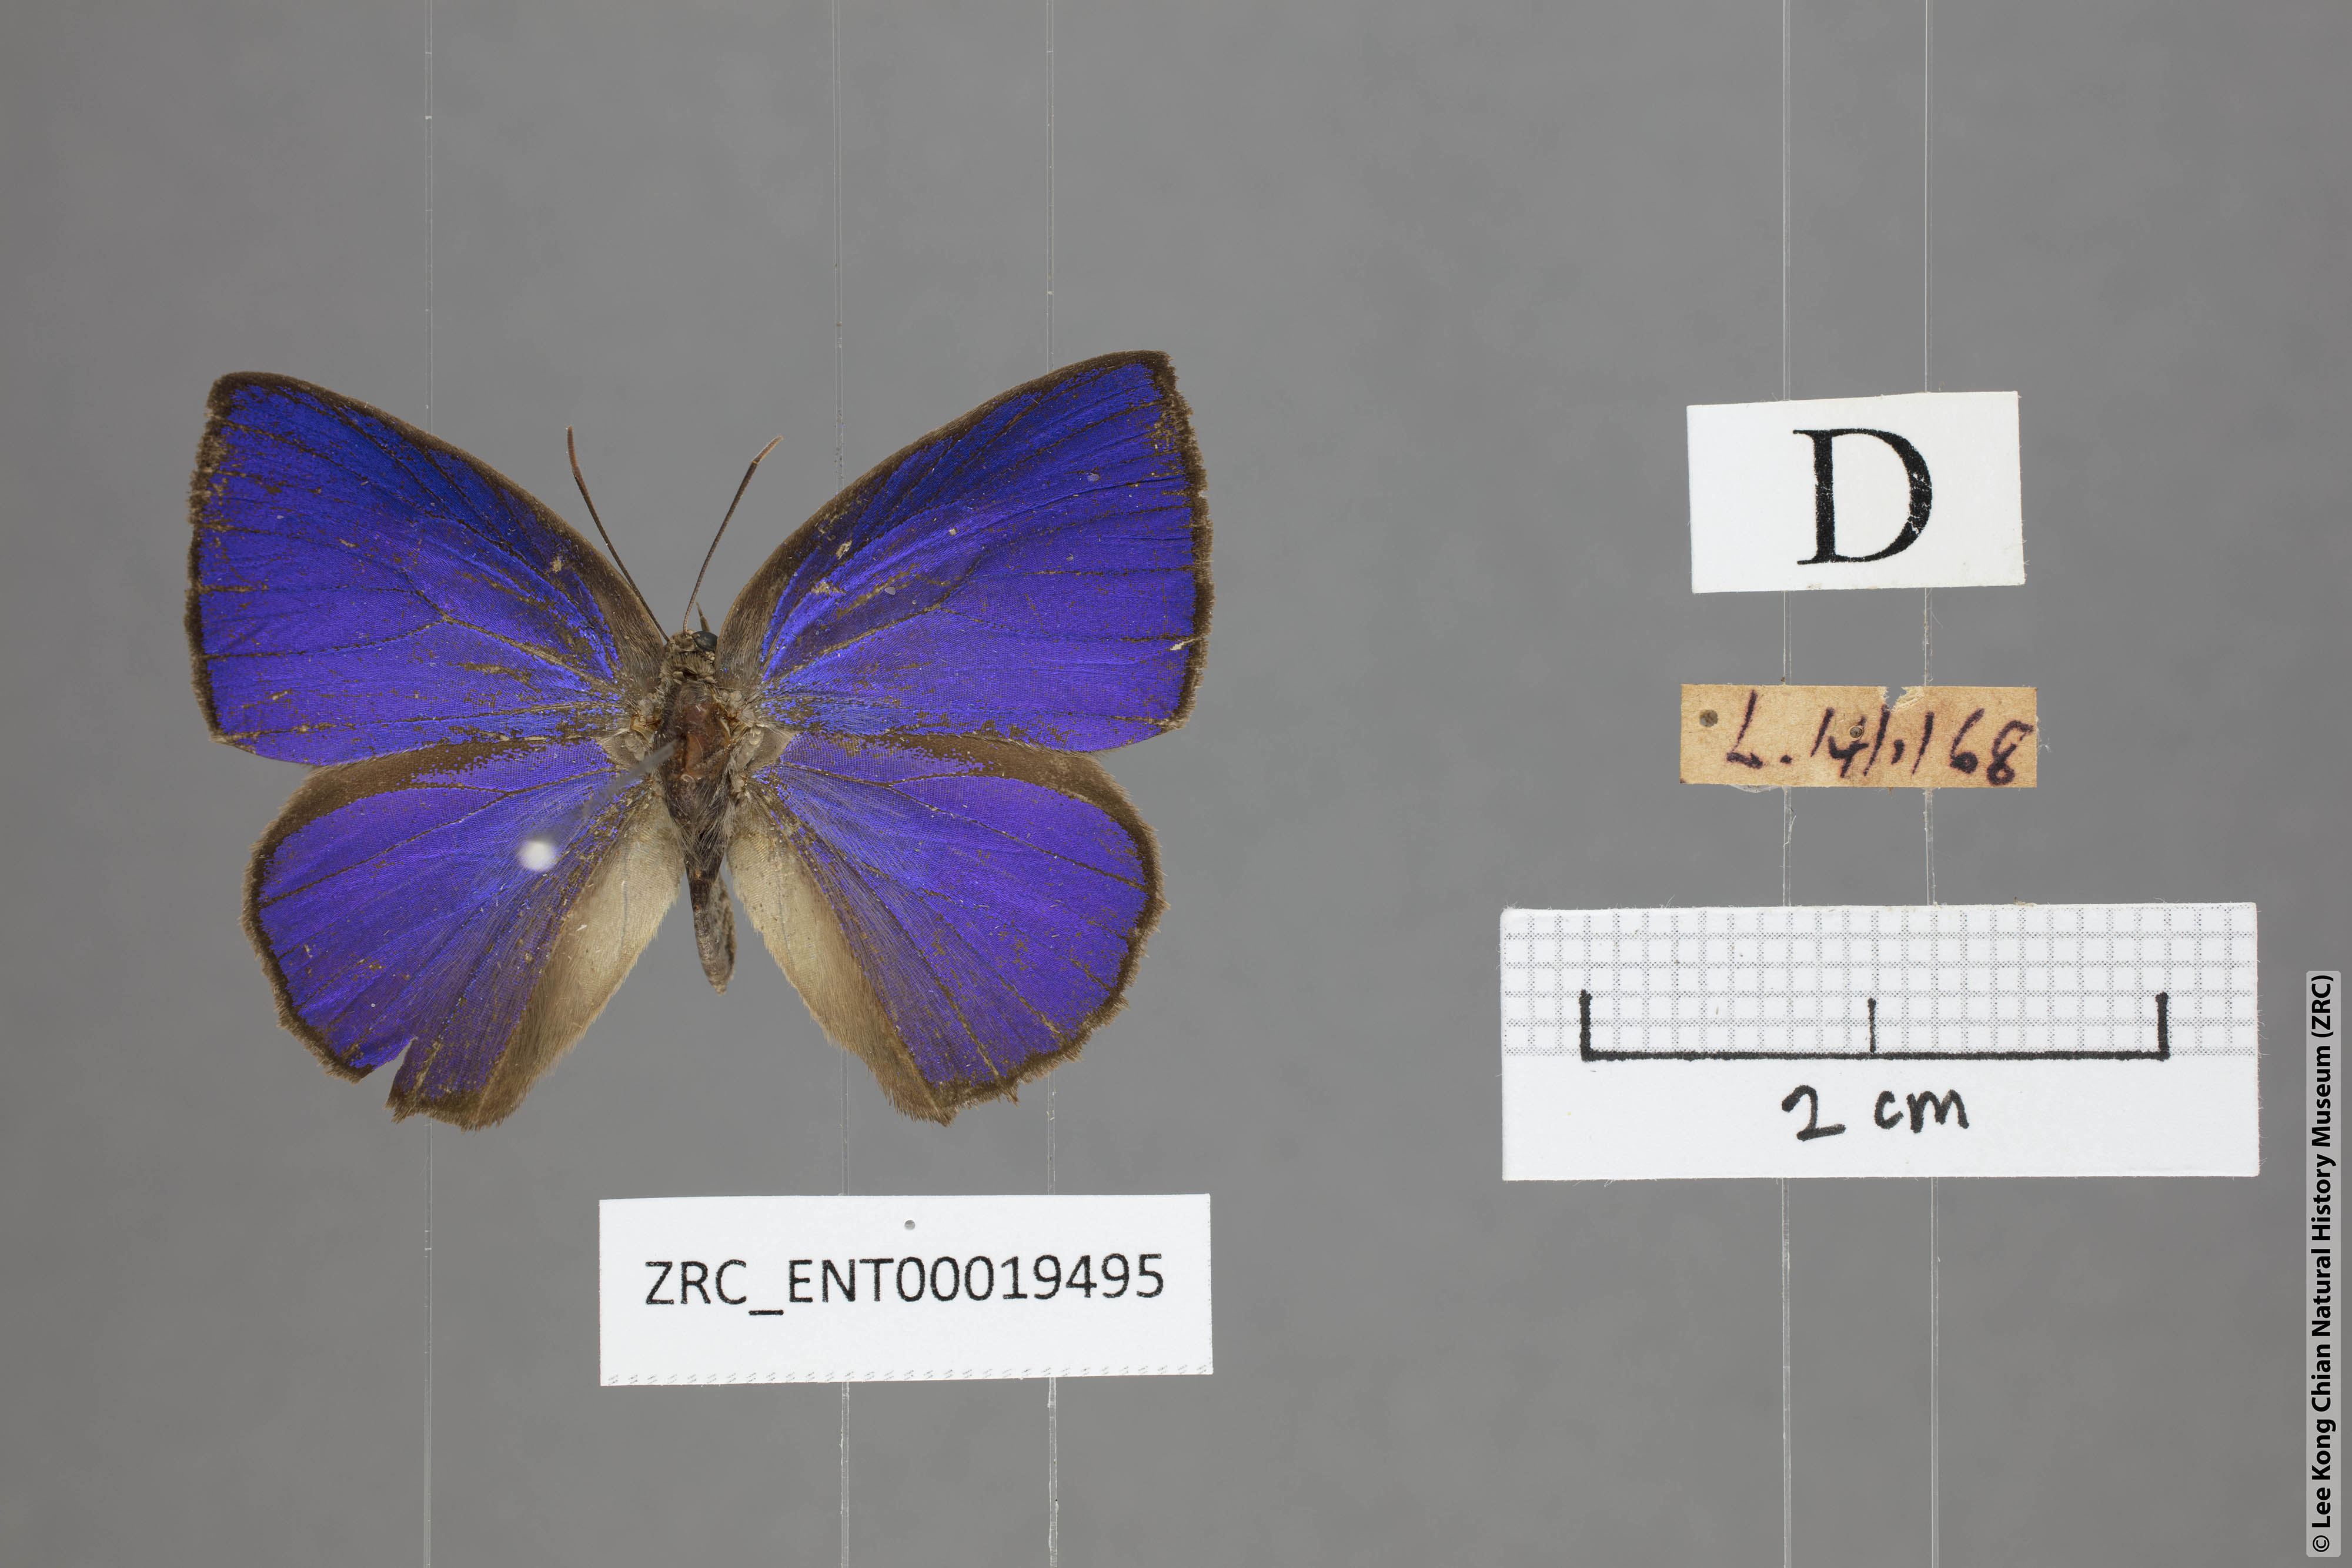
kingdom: Animalia
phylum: Arthropoda
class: Insecta
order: Lepidoptera
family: Lycaenidae
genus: Arhopala
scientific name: Arhopala fulla
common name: Spotless oakblue
